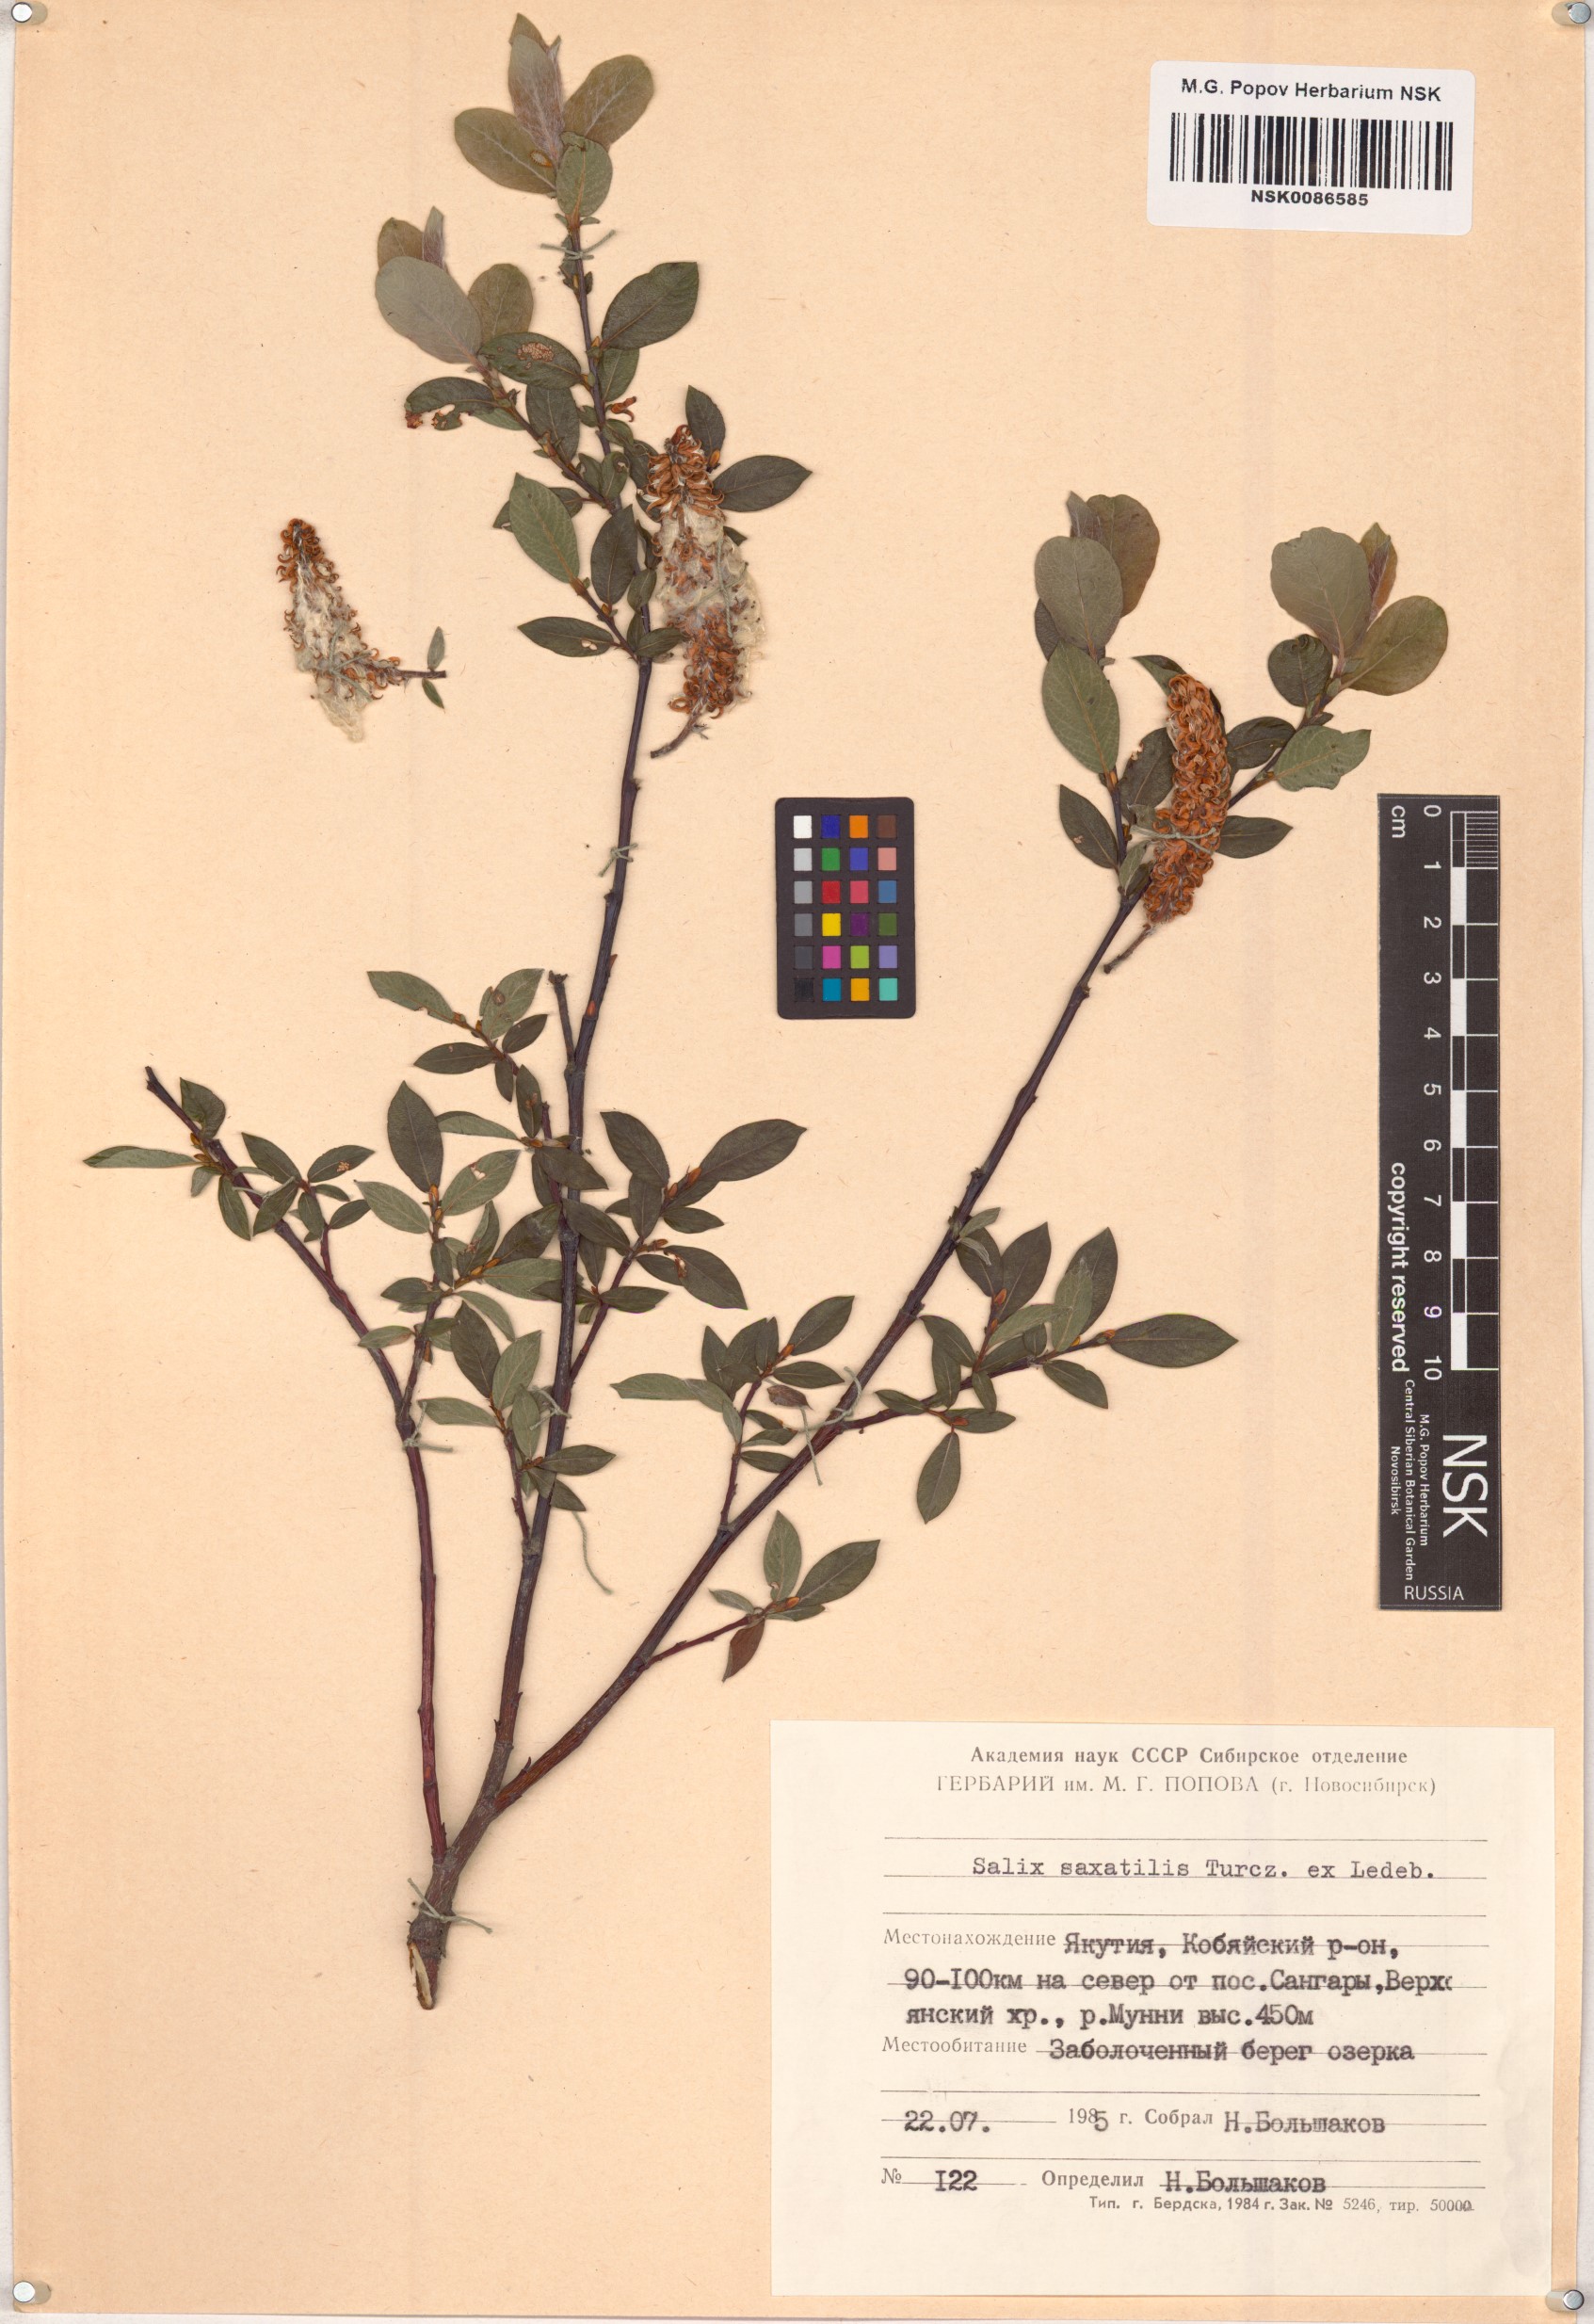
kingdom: Plantae
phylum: Tracheophyta
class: Magnoliopsida
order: Malpighiales
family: Salicaceae
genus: Salix
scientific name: Salix saxatilis
